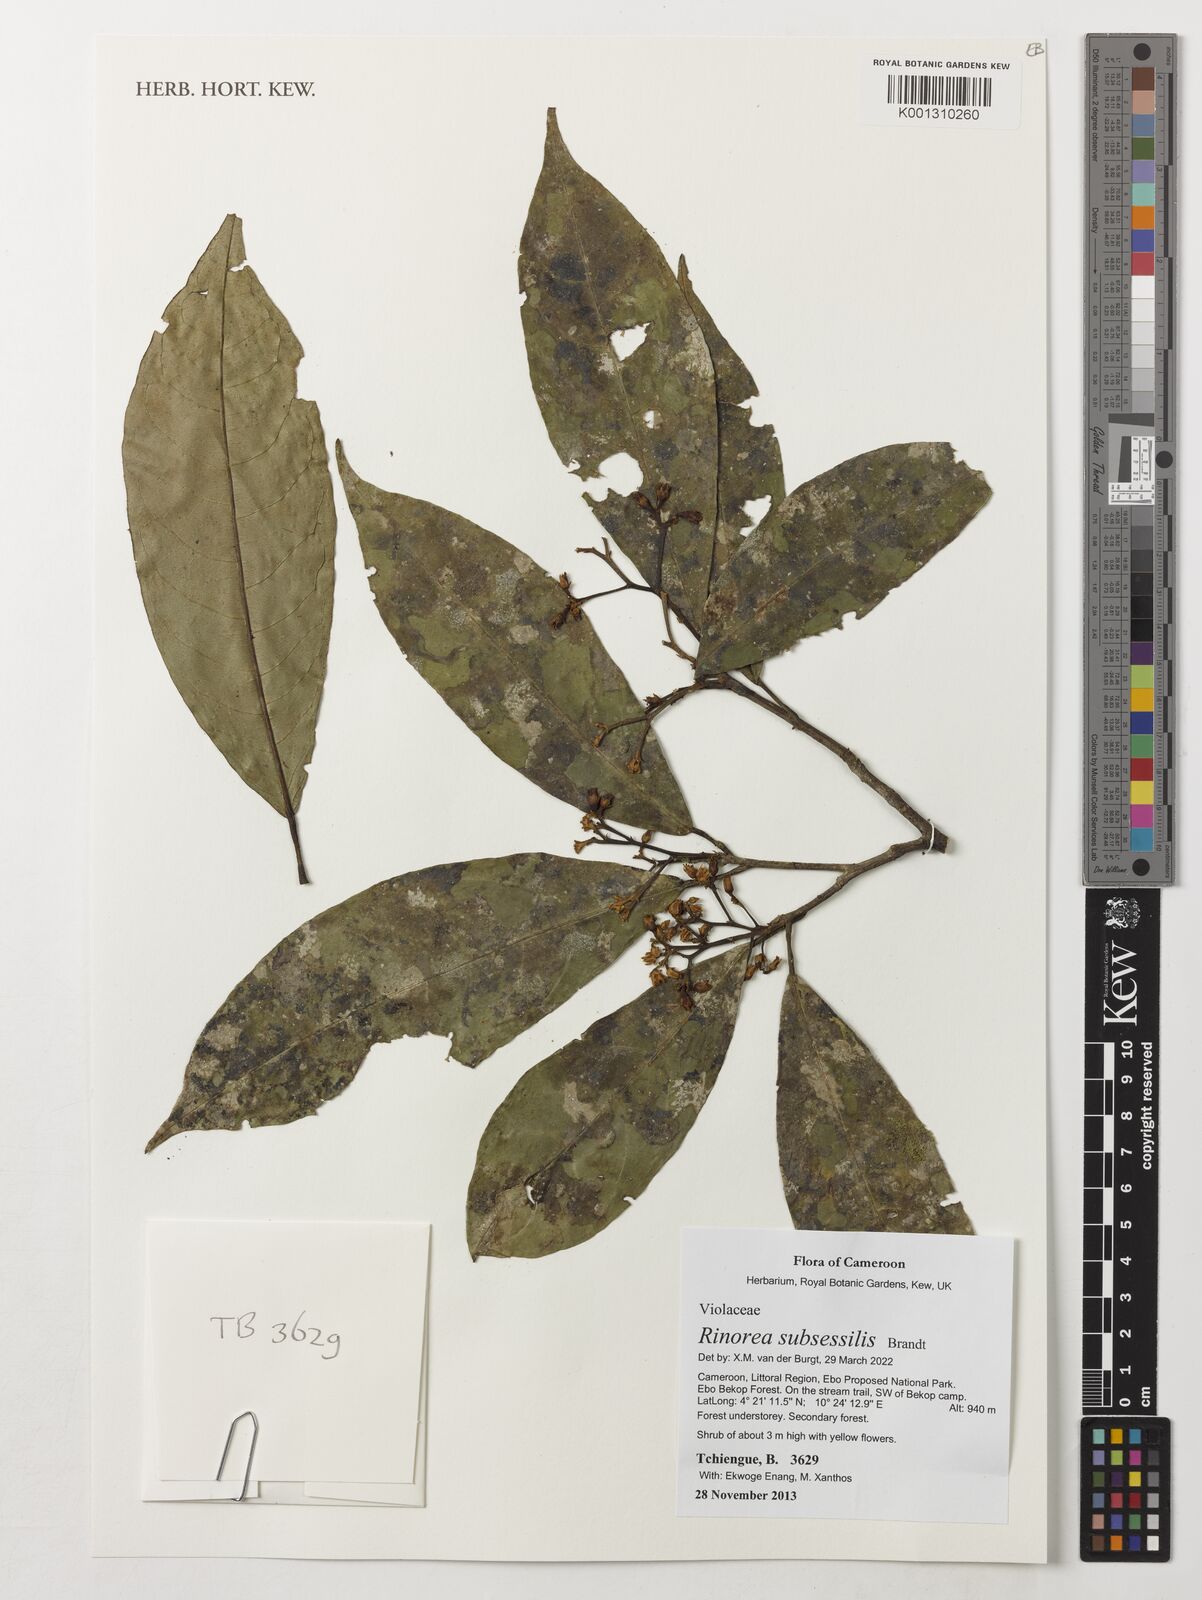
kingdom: Plantae
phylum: Tracheophyta
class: Magnoliopsida
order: Malpighiales
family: Violaceae
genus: Rinorea
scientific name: Rinorea subsessilis
